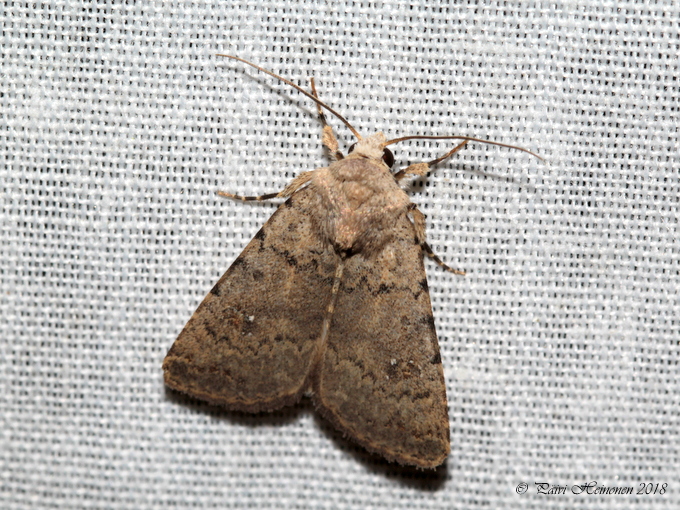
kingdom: Animalia
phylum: Arthropoda
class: Insecta
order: Lepidoptera
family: Noctuidae
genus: Caradrina
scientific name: Caradrina clavipalpis
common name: Pale mottled willow
